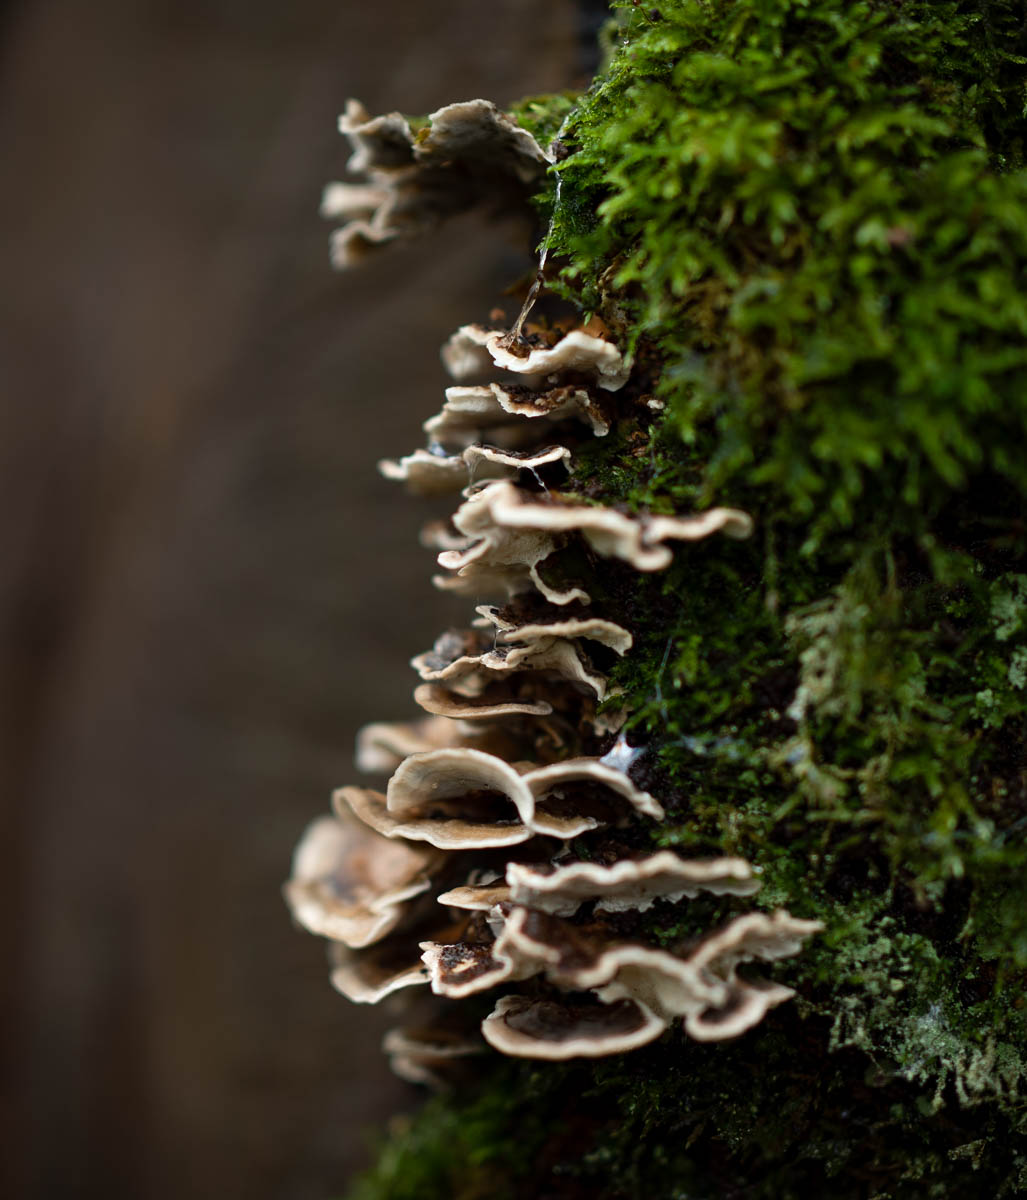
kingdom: Fungi
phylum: Basidiomycota
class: Agaricomycetes
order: Polyporales
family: Polyporaceae
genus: Trametes
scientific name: Trametes versicolor
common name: broget læderporesvamp
